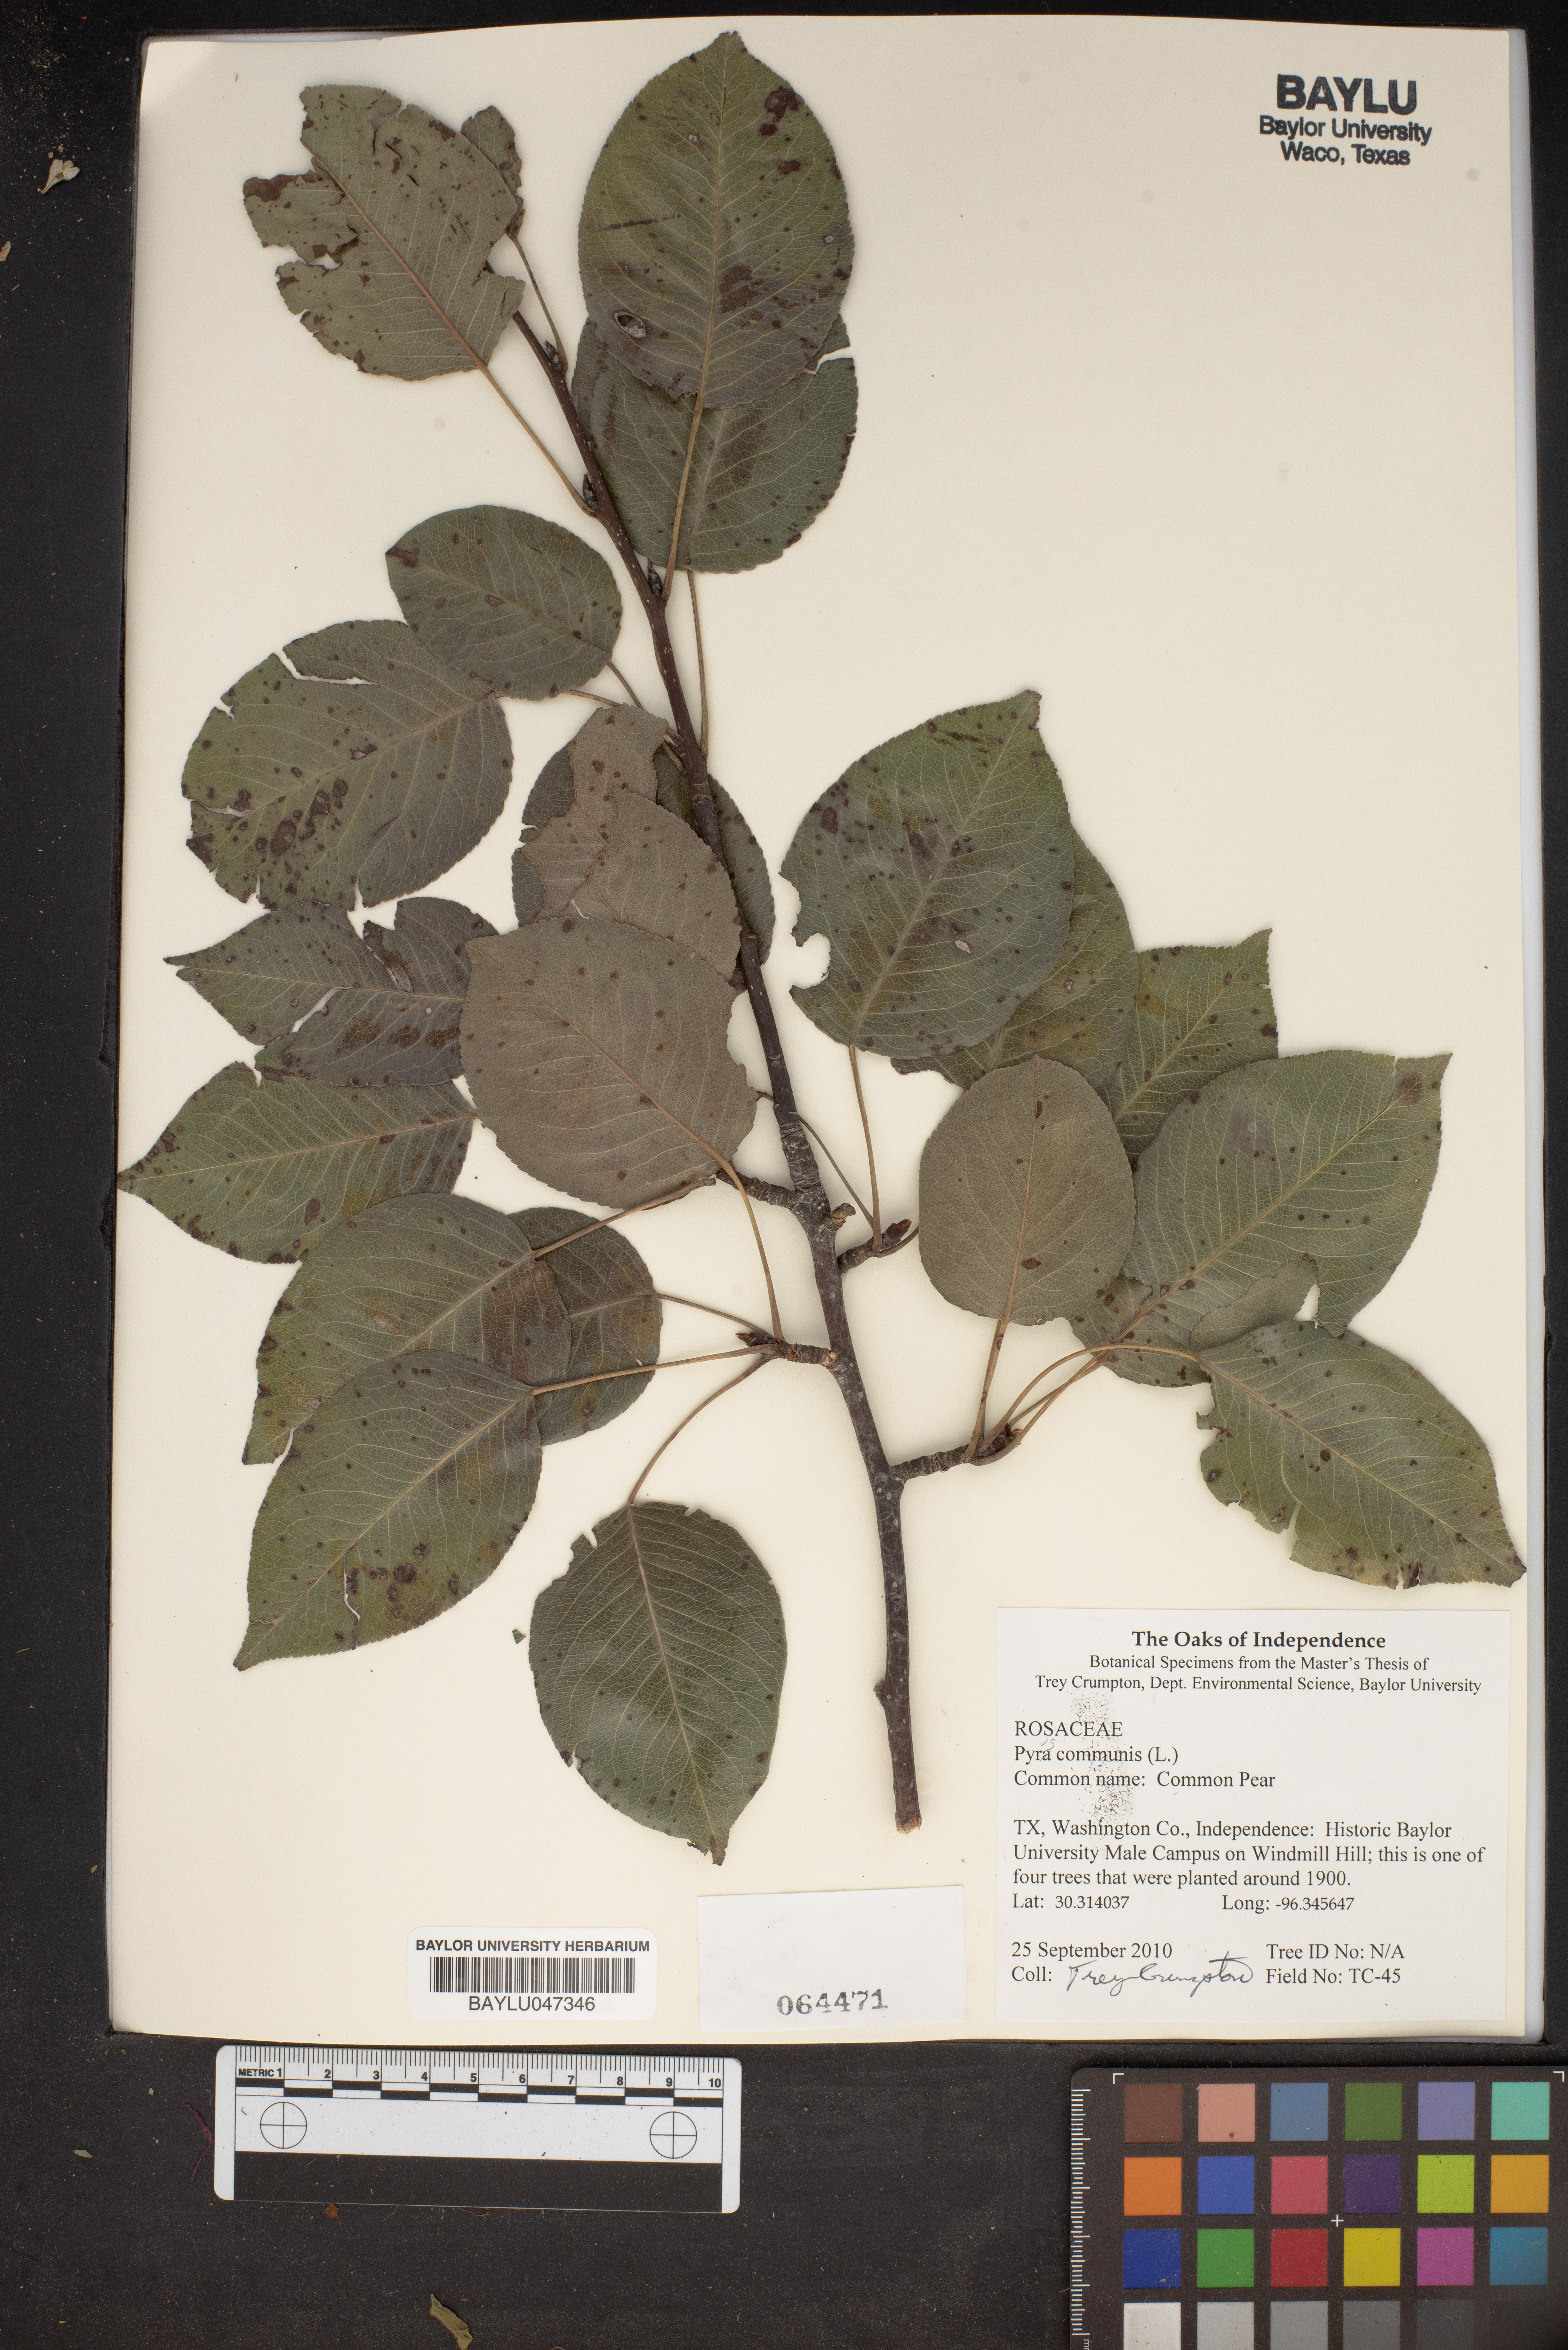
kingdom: Plantae
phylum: Tracheophyta
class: Magnoliopsida
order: Rosales
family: Rosaceae
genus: Pyrus
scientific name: Pyrus communis
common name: Pear
